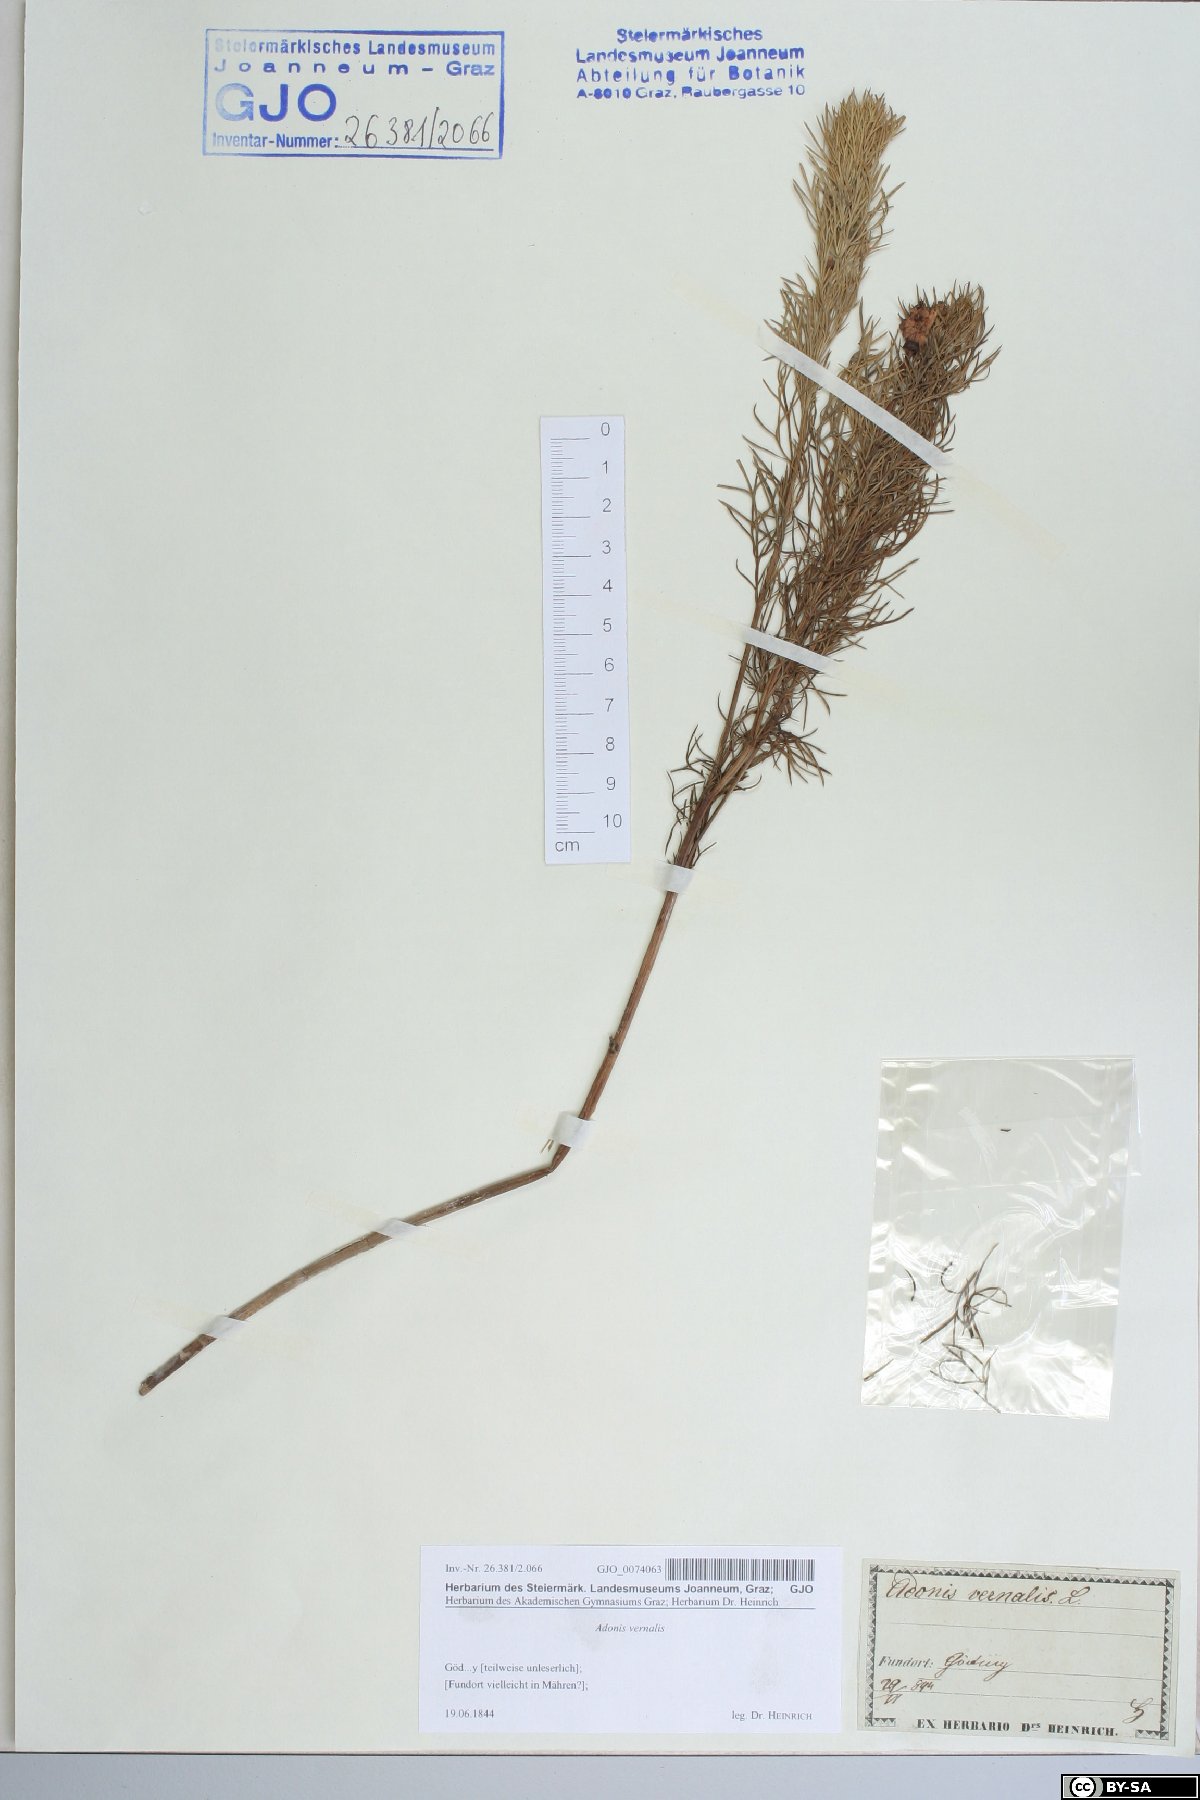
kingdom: Plantae
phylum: Tracheophyta
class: Magnoliopsida
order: Ranunculales
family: Ranunculaceae
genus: Adonis
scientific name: Adonis vernalis
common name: Yellow pheasants-eye
